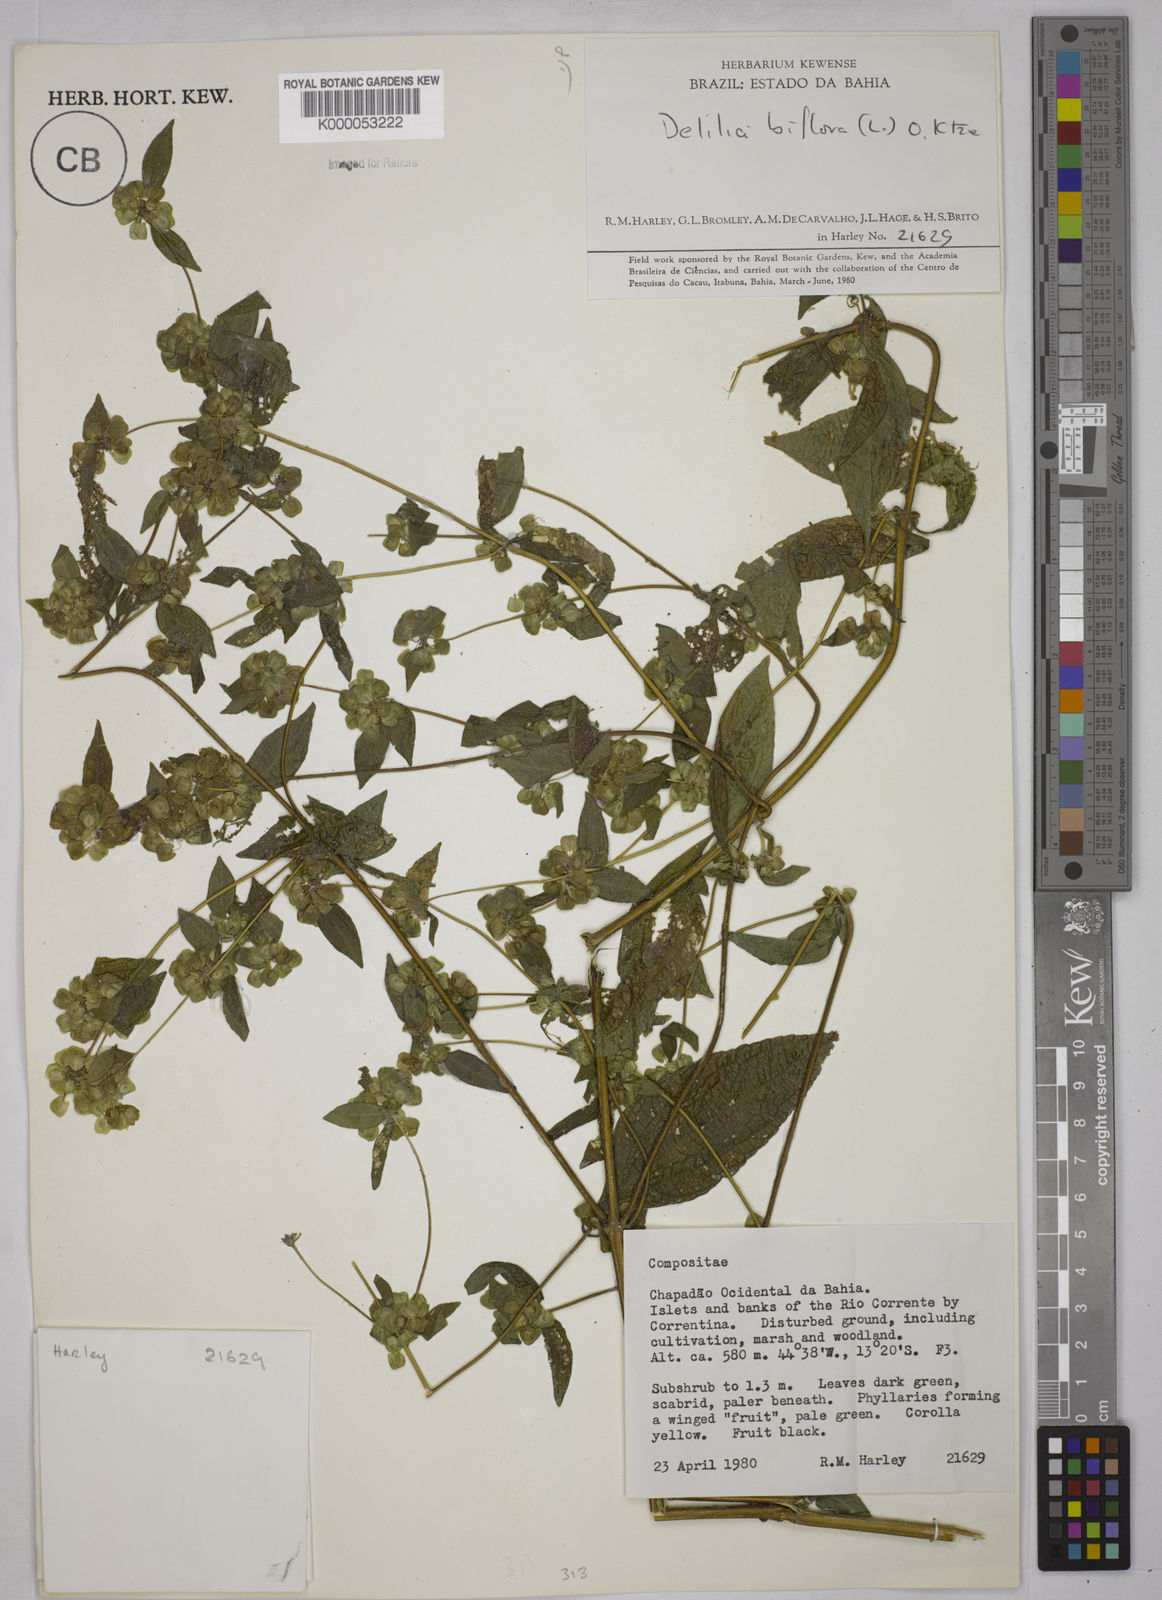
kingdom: Plantae
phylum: Tracheophyta
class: Magnoliopsida
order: Asterales
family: Asteraceae
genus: Delilia
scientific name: Delilia biflora
